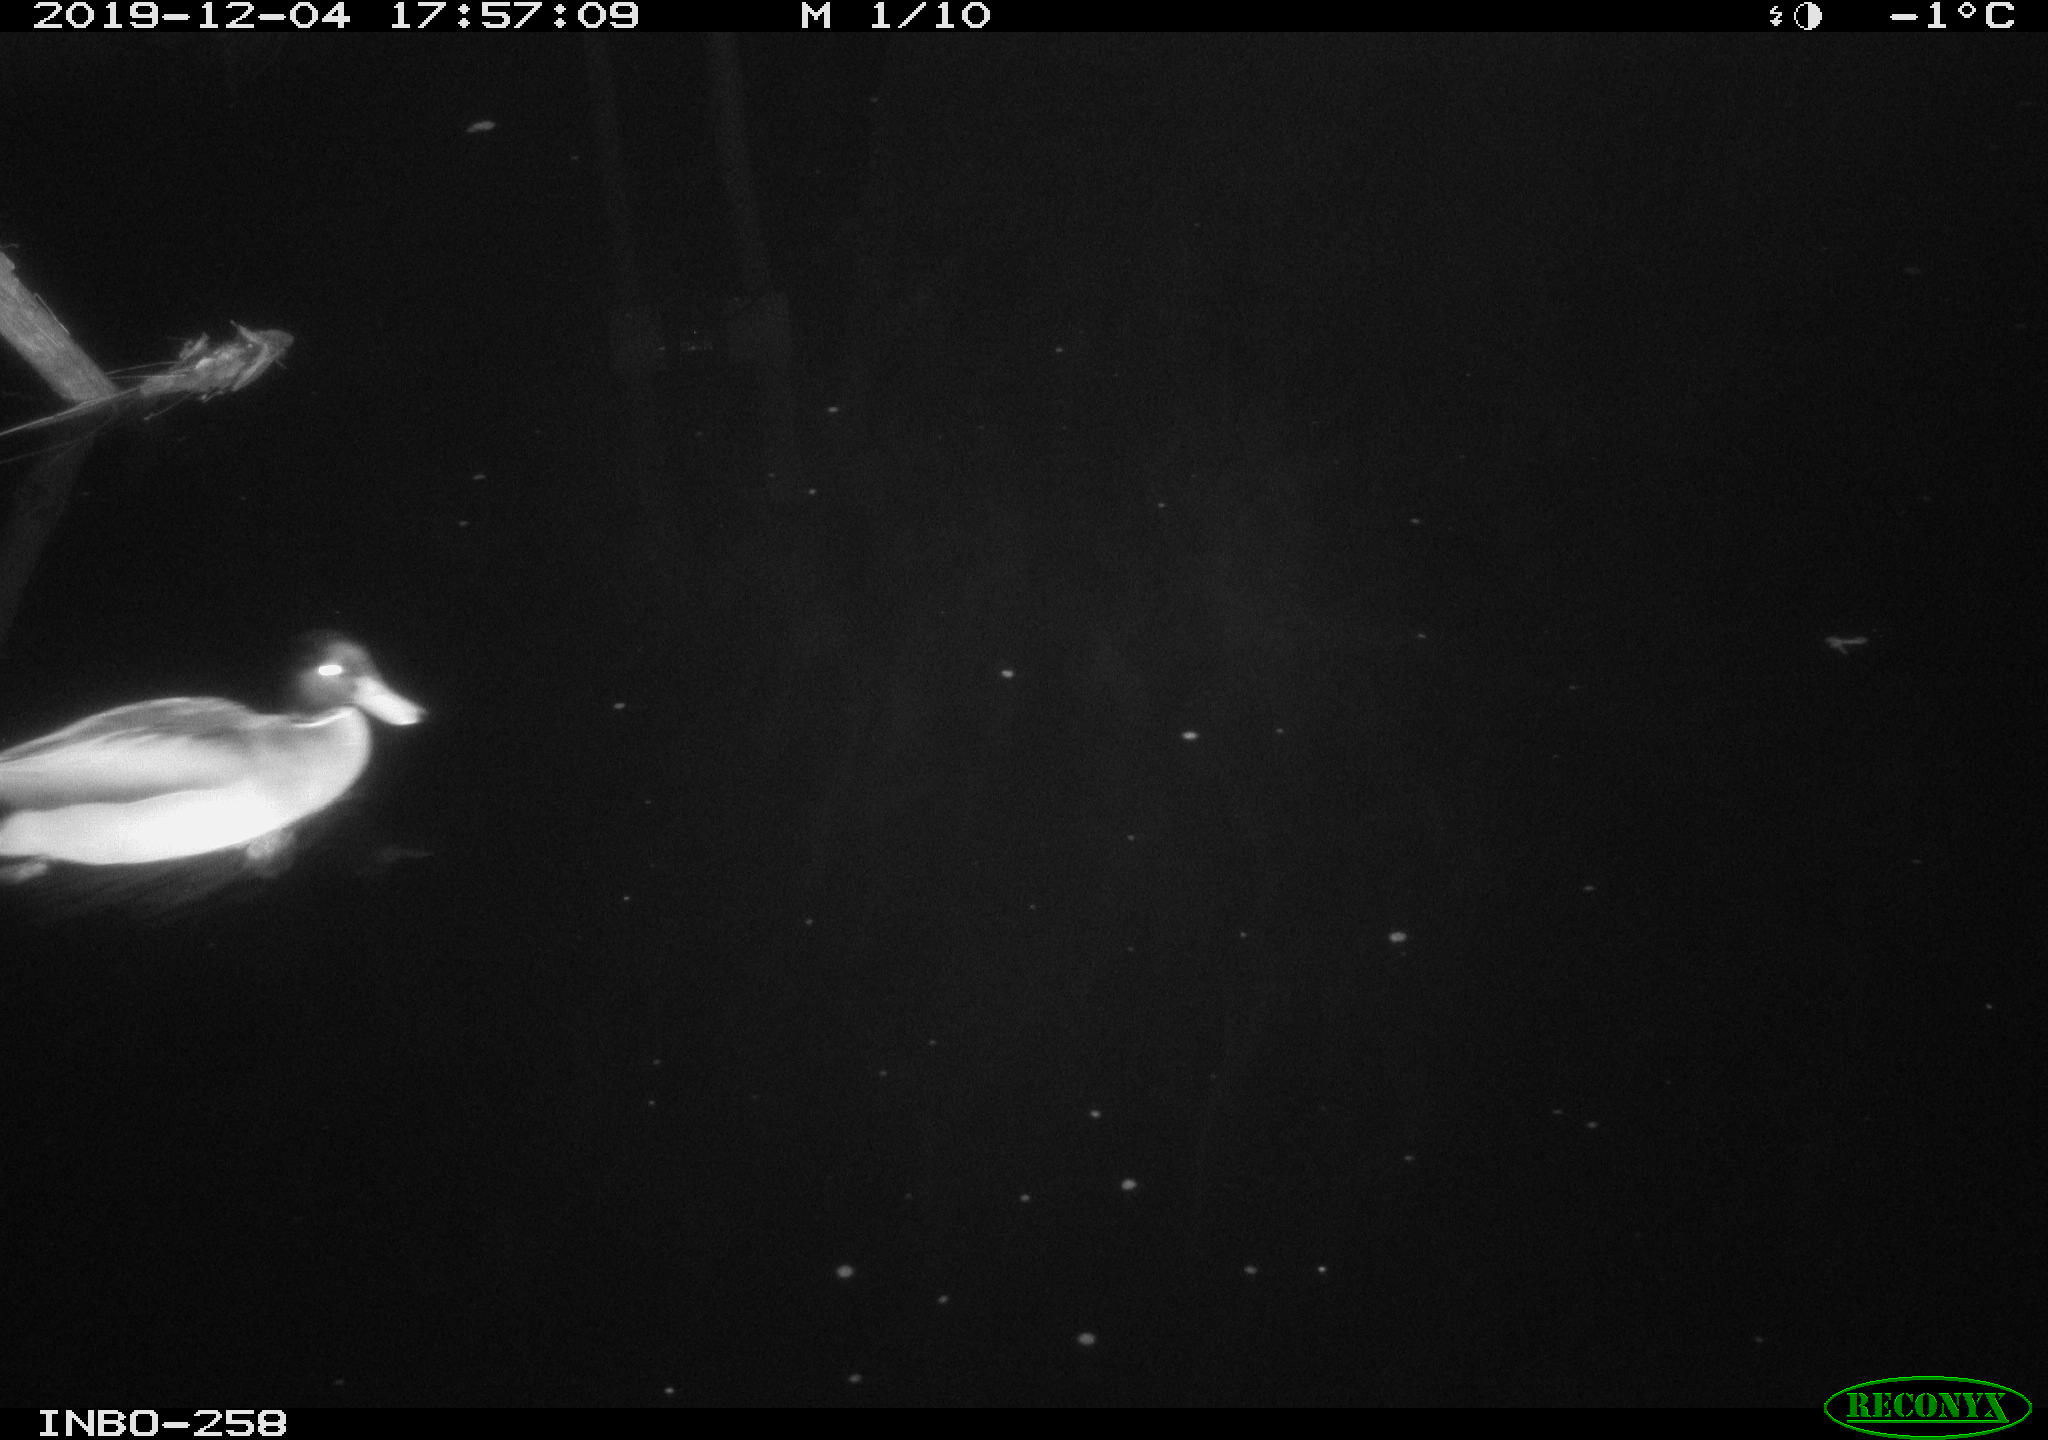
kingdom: Animalia
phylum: Chordata
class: Aves
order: Anseriformes
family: Anatidae
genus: Anas
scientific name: Anas platyrhynchos
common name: Mallard
